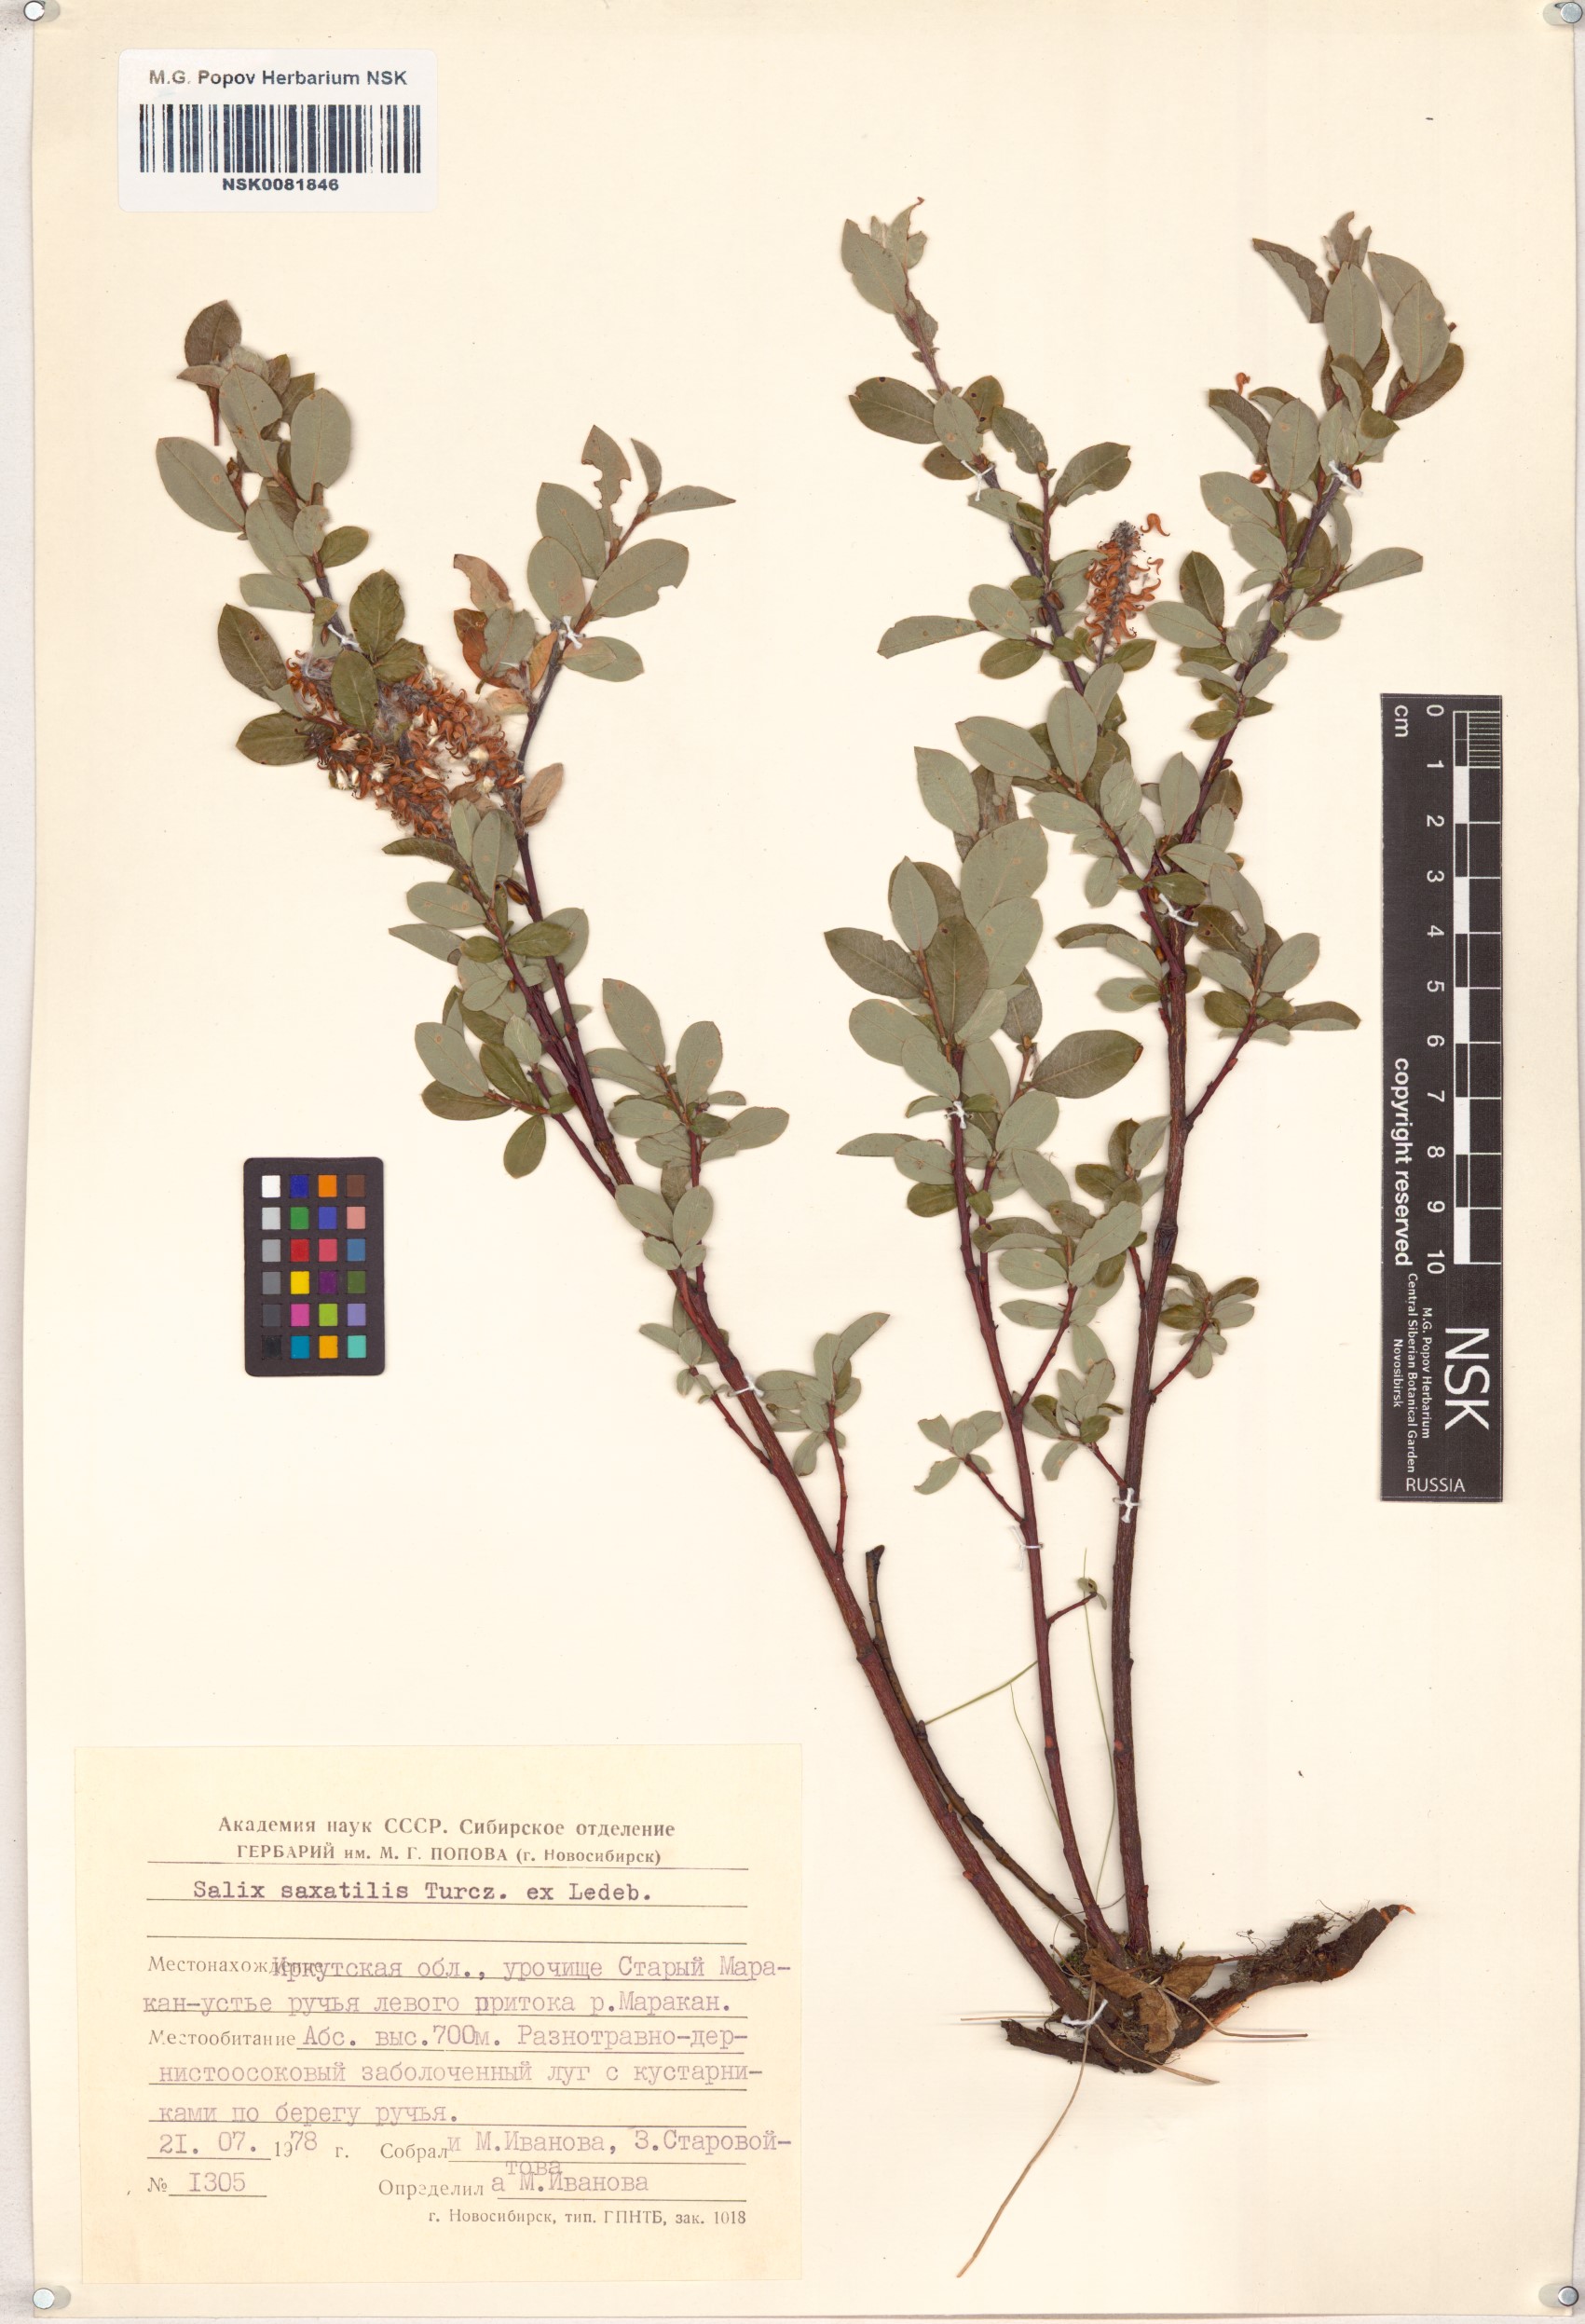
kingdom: Plantae
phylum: Tracheophyta
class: Magnoliopsida
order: Malpighiales
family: Salicaceae
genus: Salix
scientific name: Salix saxatilis
